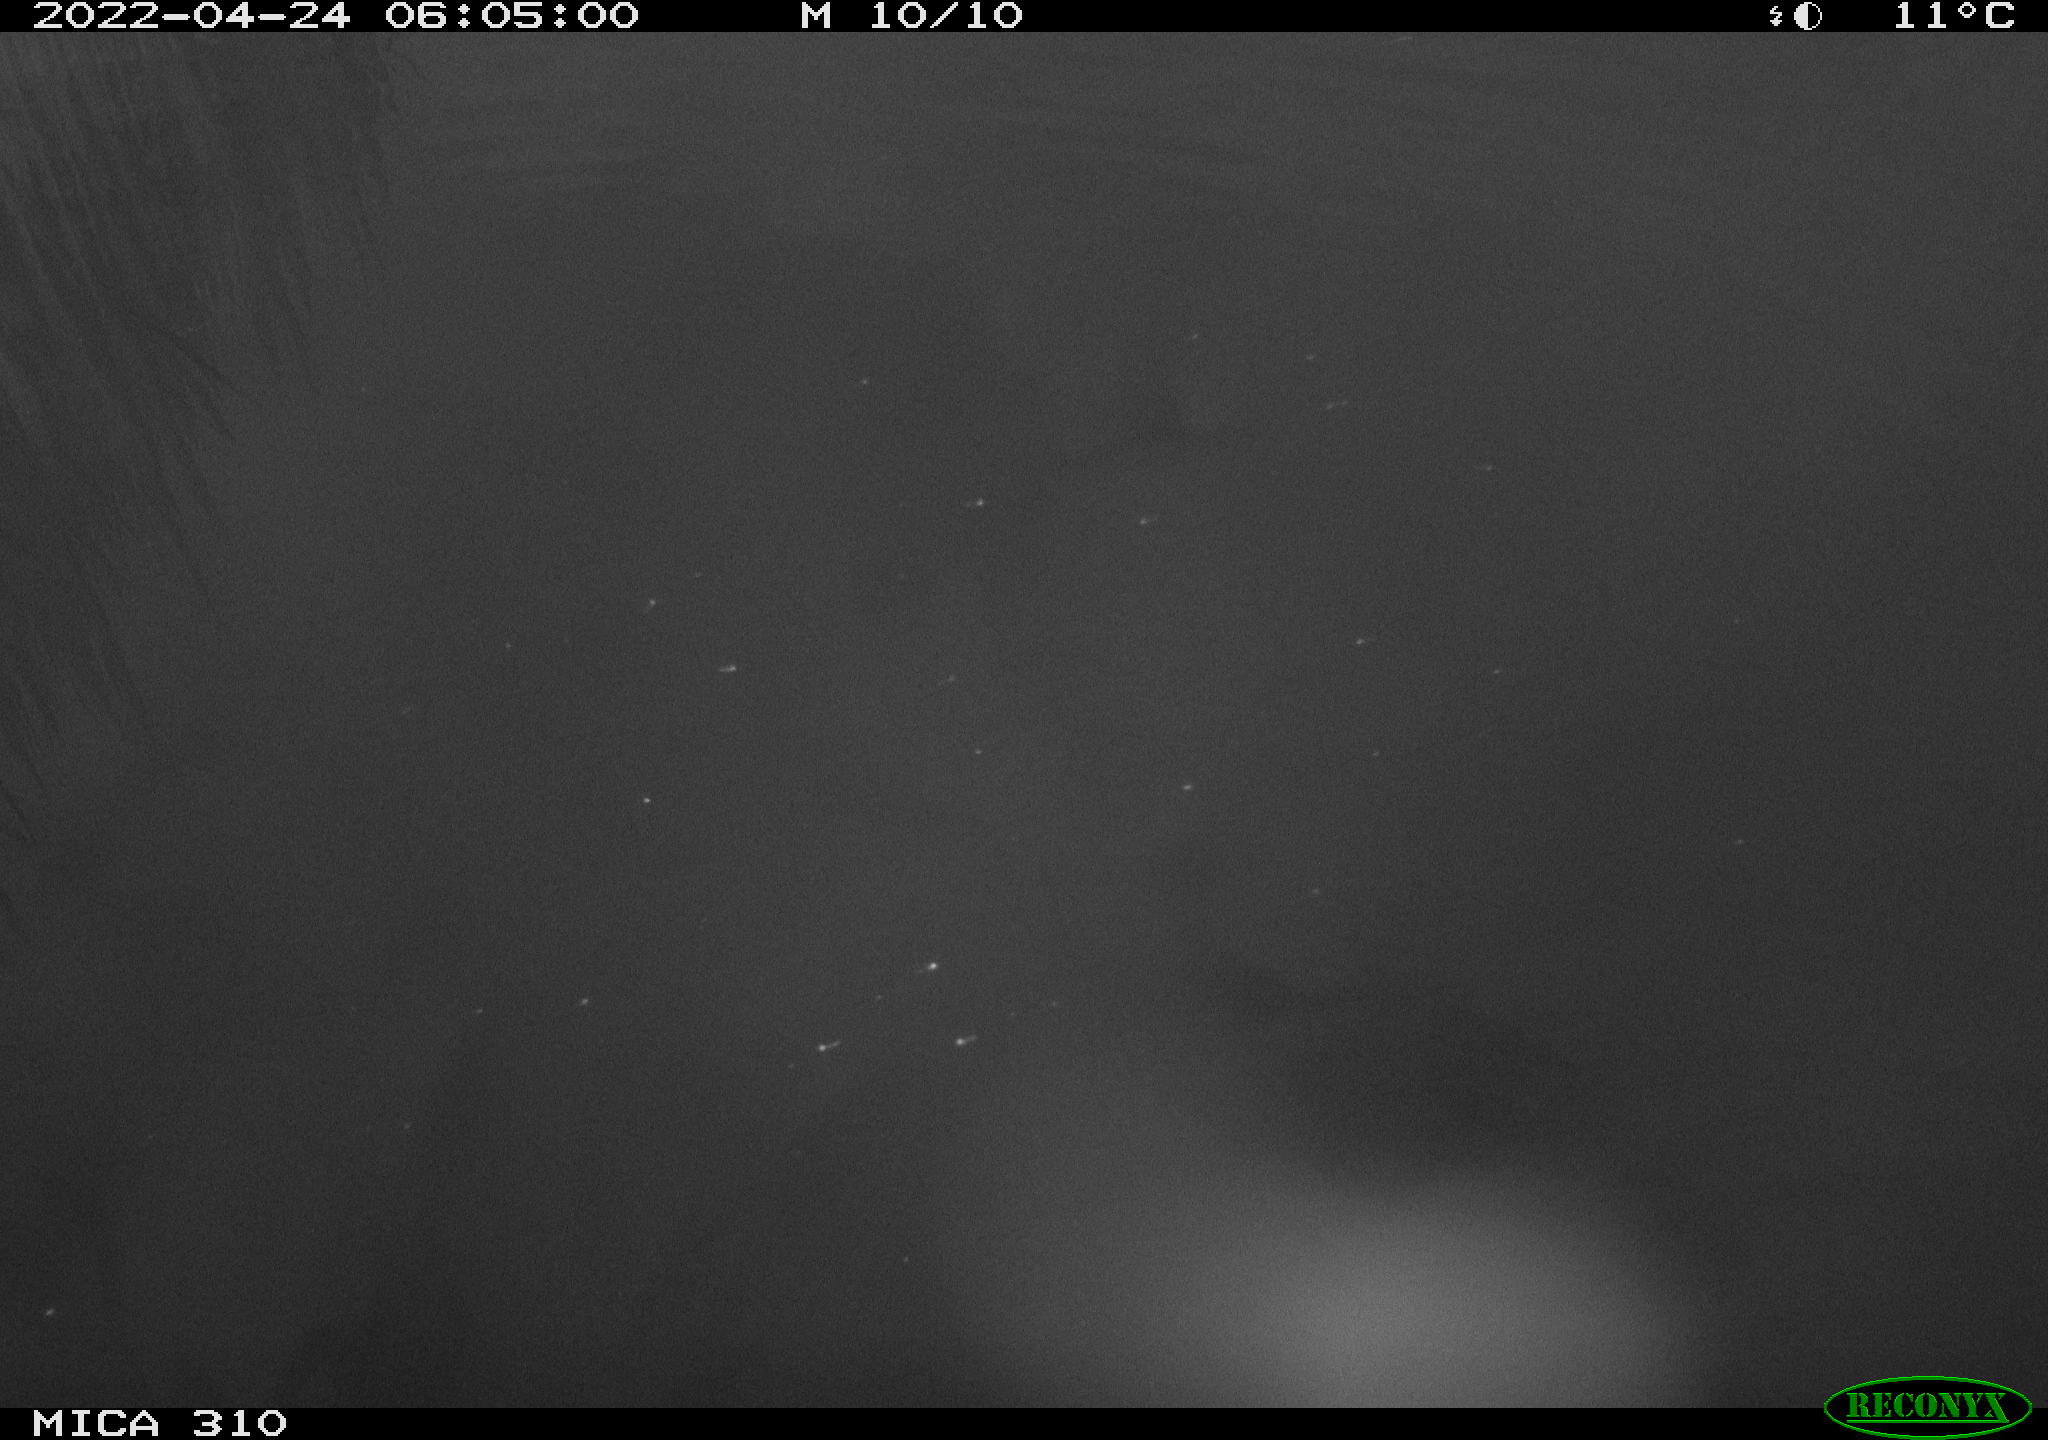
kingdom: Animalia
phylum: Chordata
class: Aves
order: Gruiformes
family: Rallidae
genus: Fulica
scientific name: Fulica atra
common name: Eurasian coot
